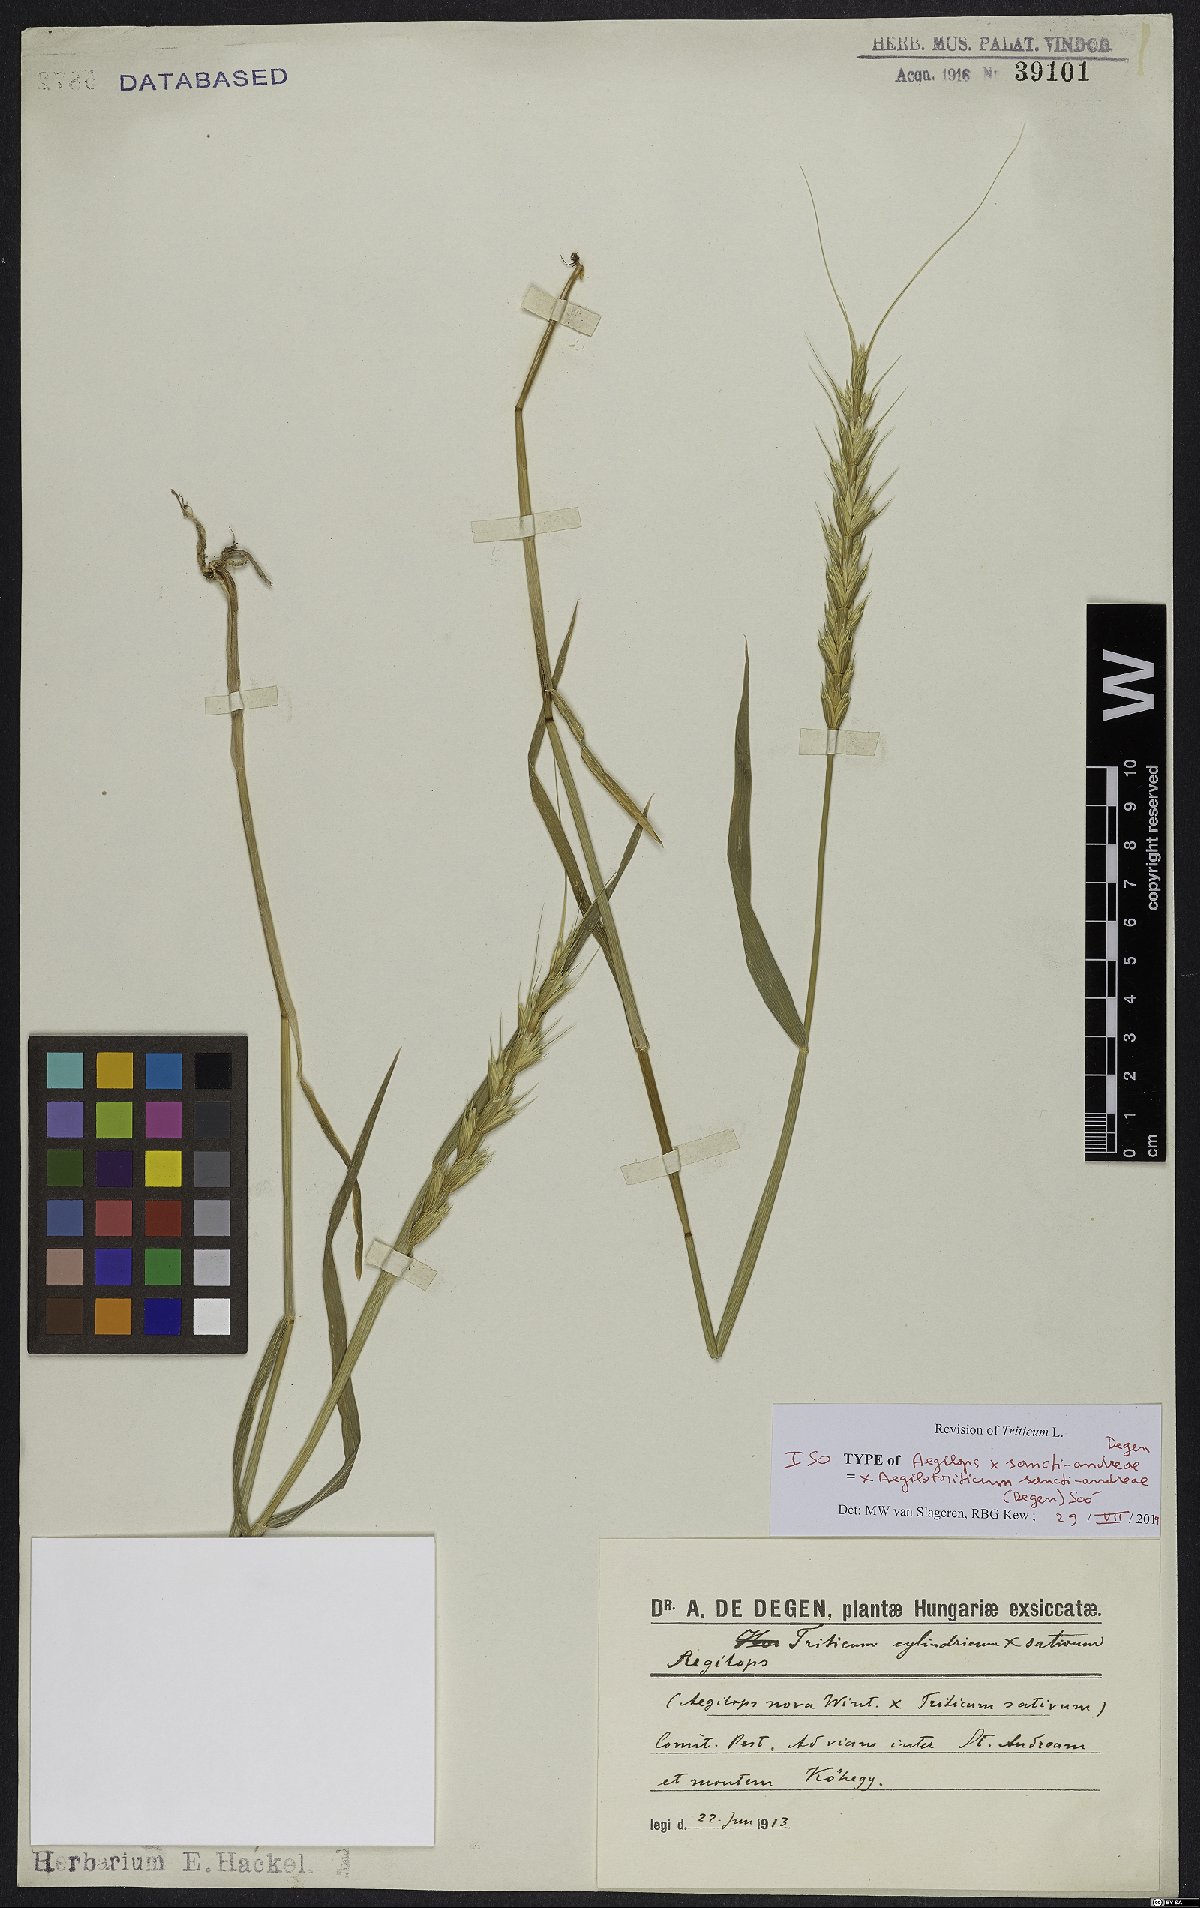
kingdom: Plantae
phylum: Tracheophyta
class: Liliopsida
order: Poales
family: Poaceae
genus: Aegilotrichum
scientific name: Aegilotrichum
